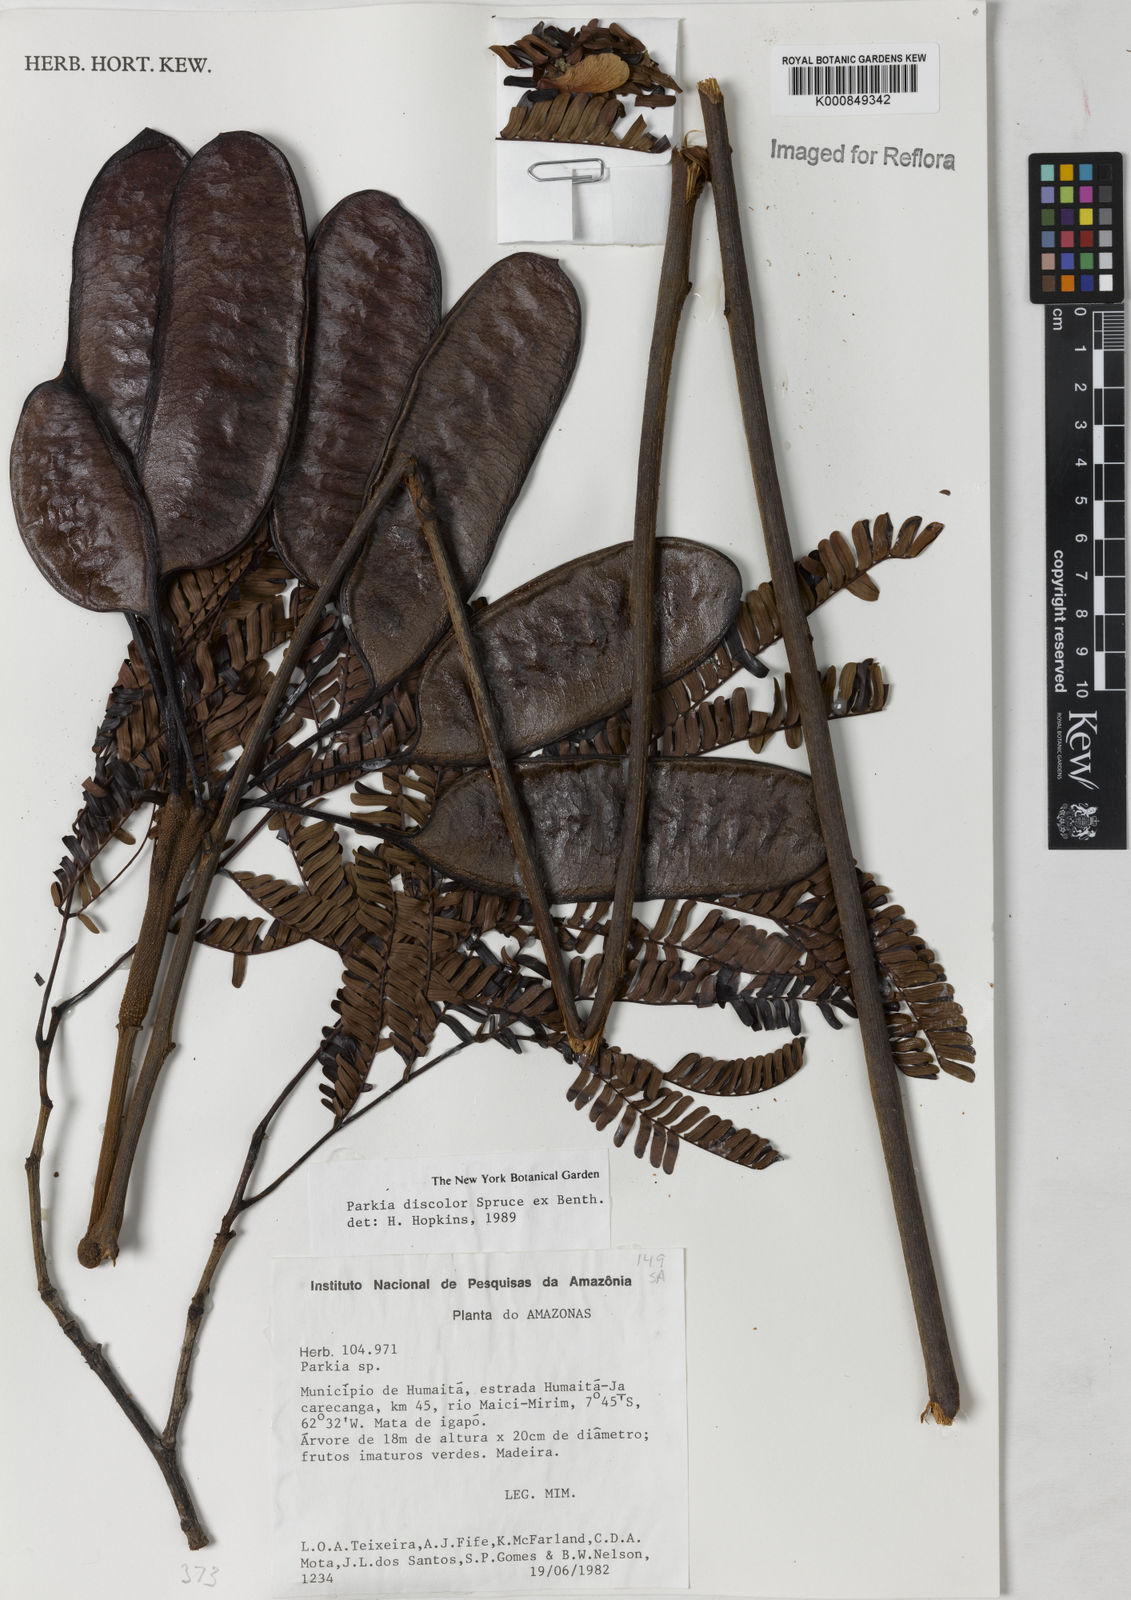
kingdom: Plantae
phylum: Tracheophyta
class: Magnoliopsida
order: Fabales
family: Fabaceae
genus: Parkia
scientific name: Parkia discolor
